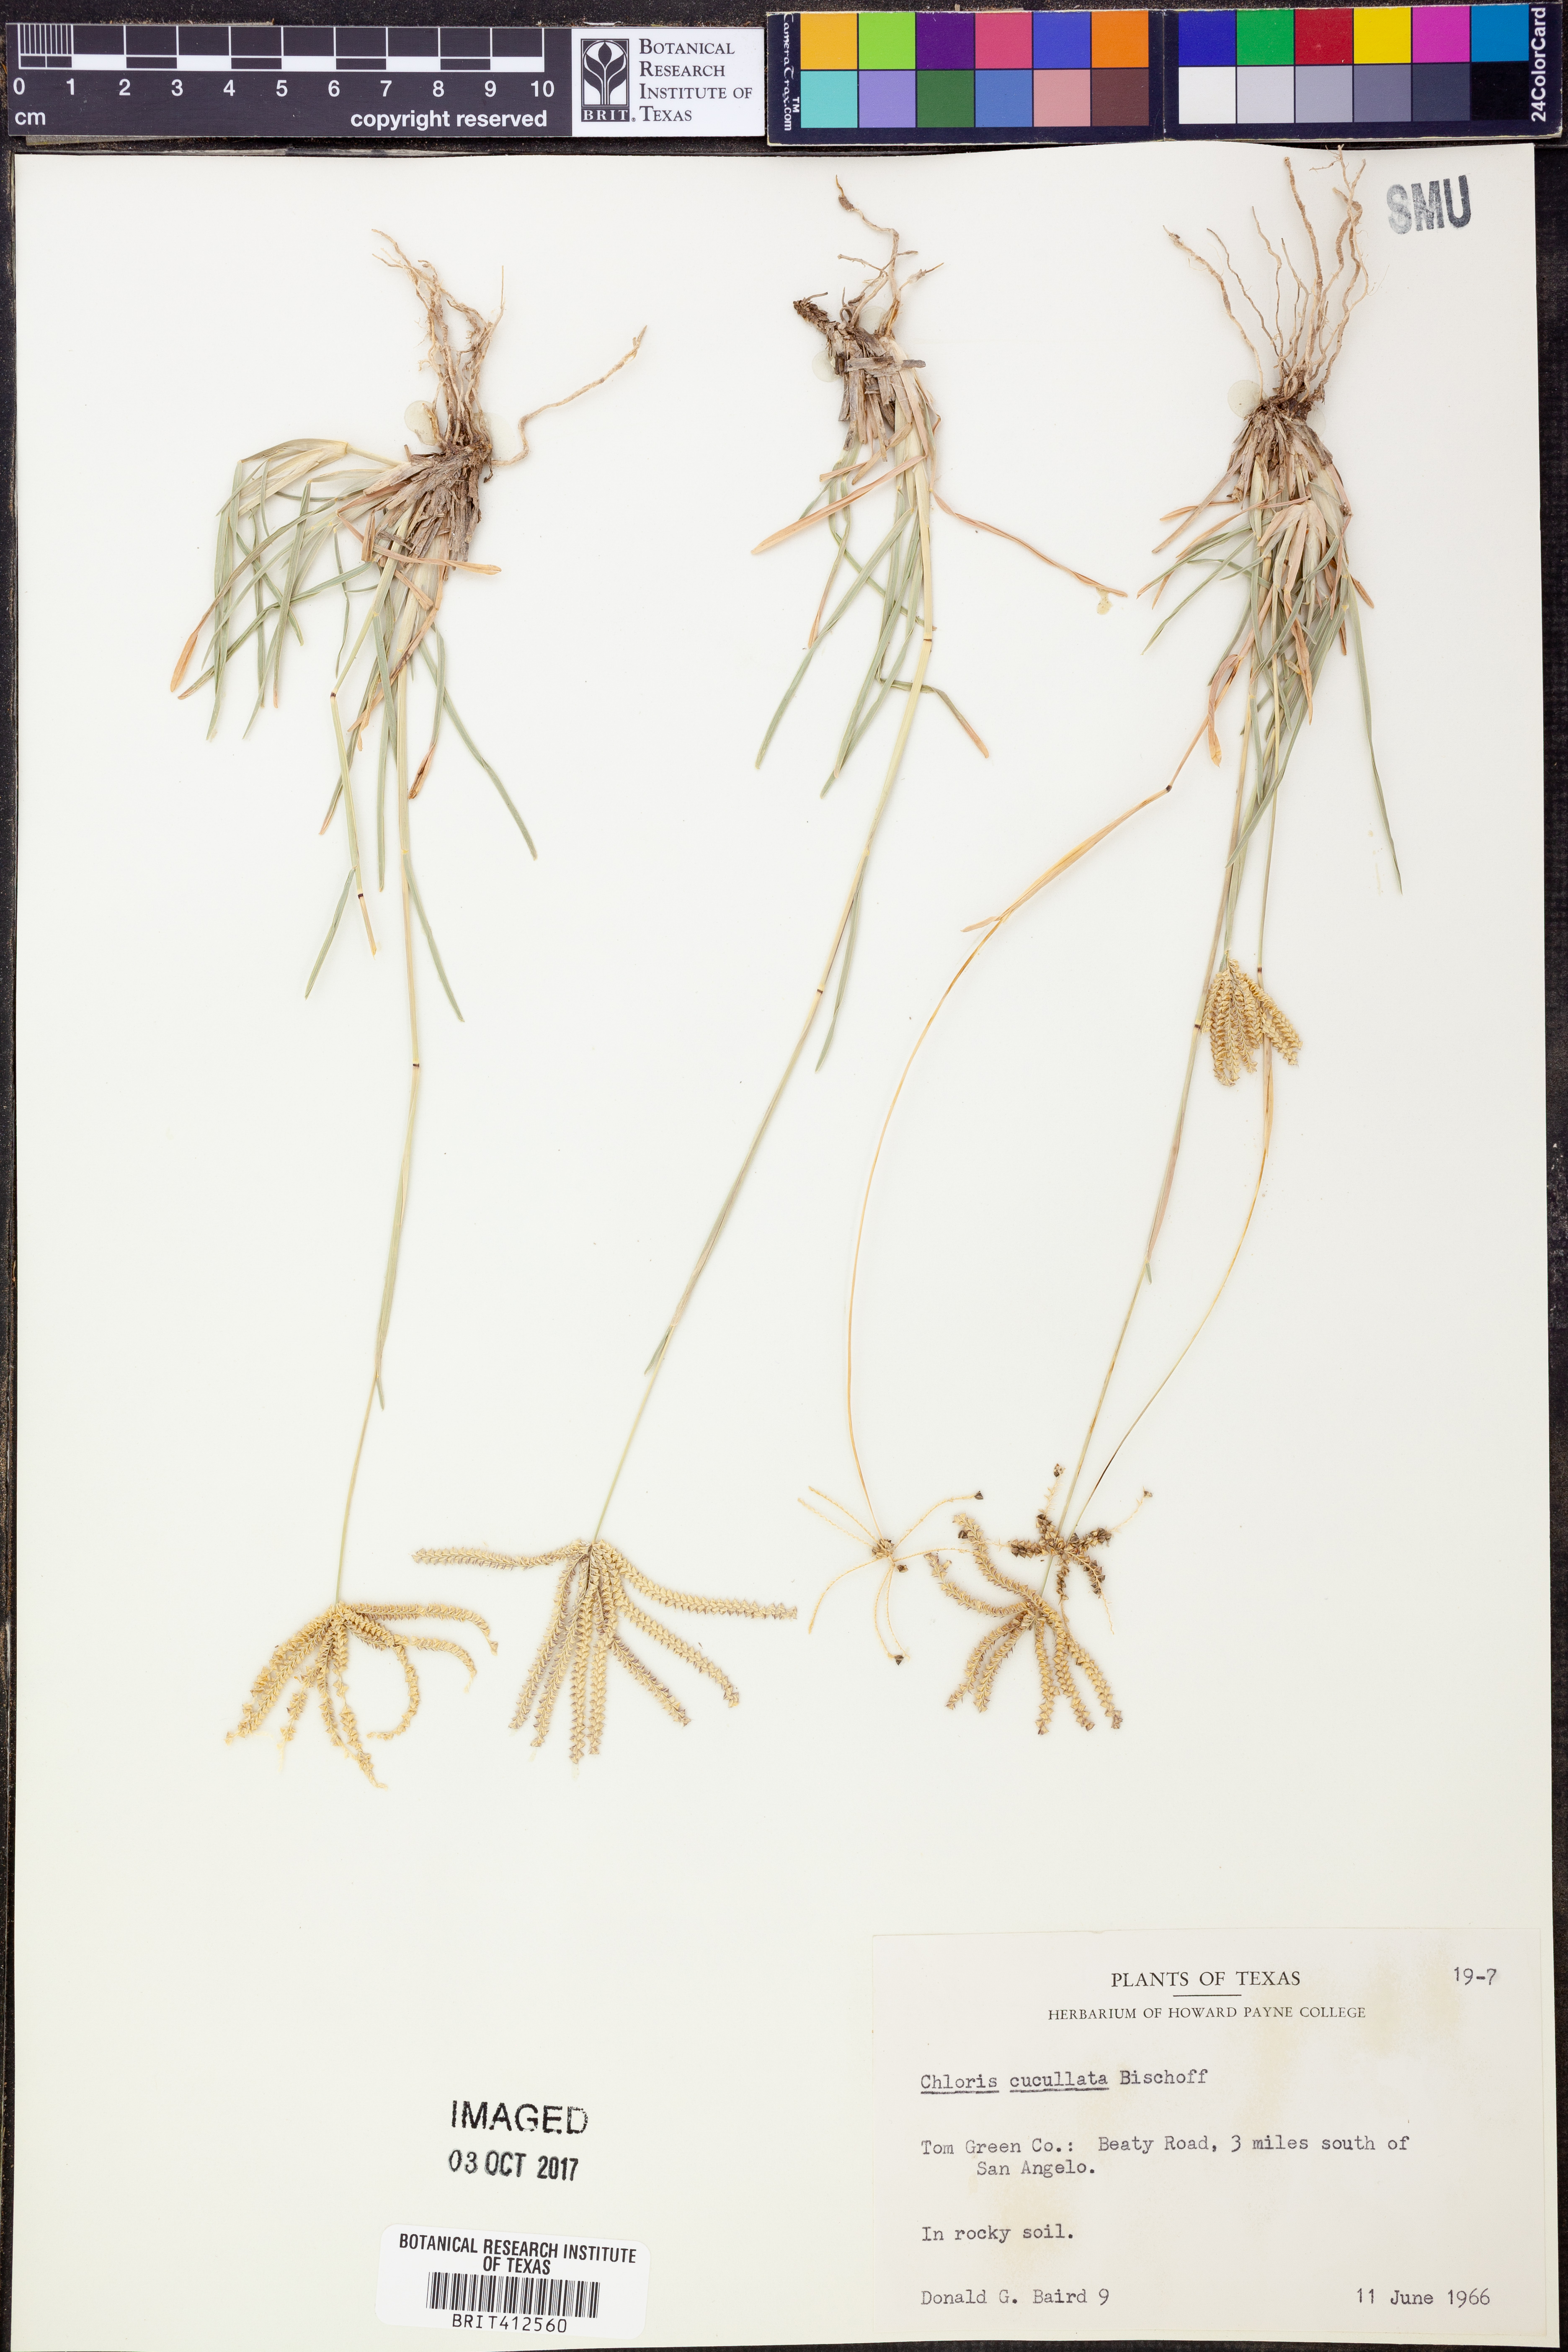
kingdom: Plantae
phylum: Tracheophyta
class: Liliopsida
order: Poales
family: Poaceae
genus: Chloris
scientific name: Chloris cucullata
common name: Hooded windmill grass
